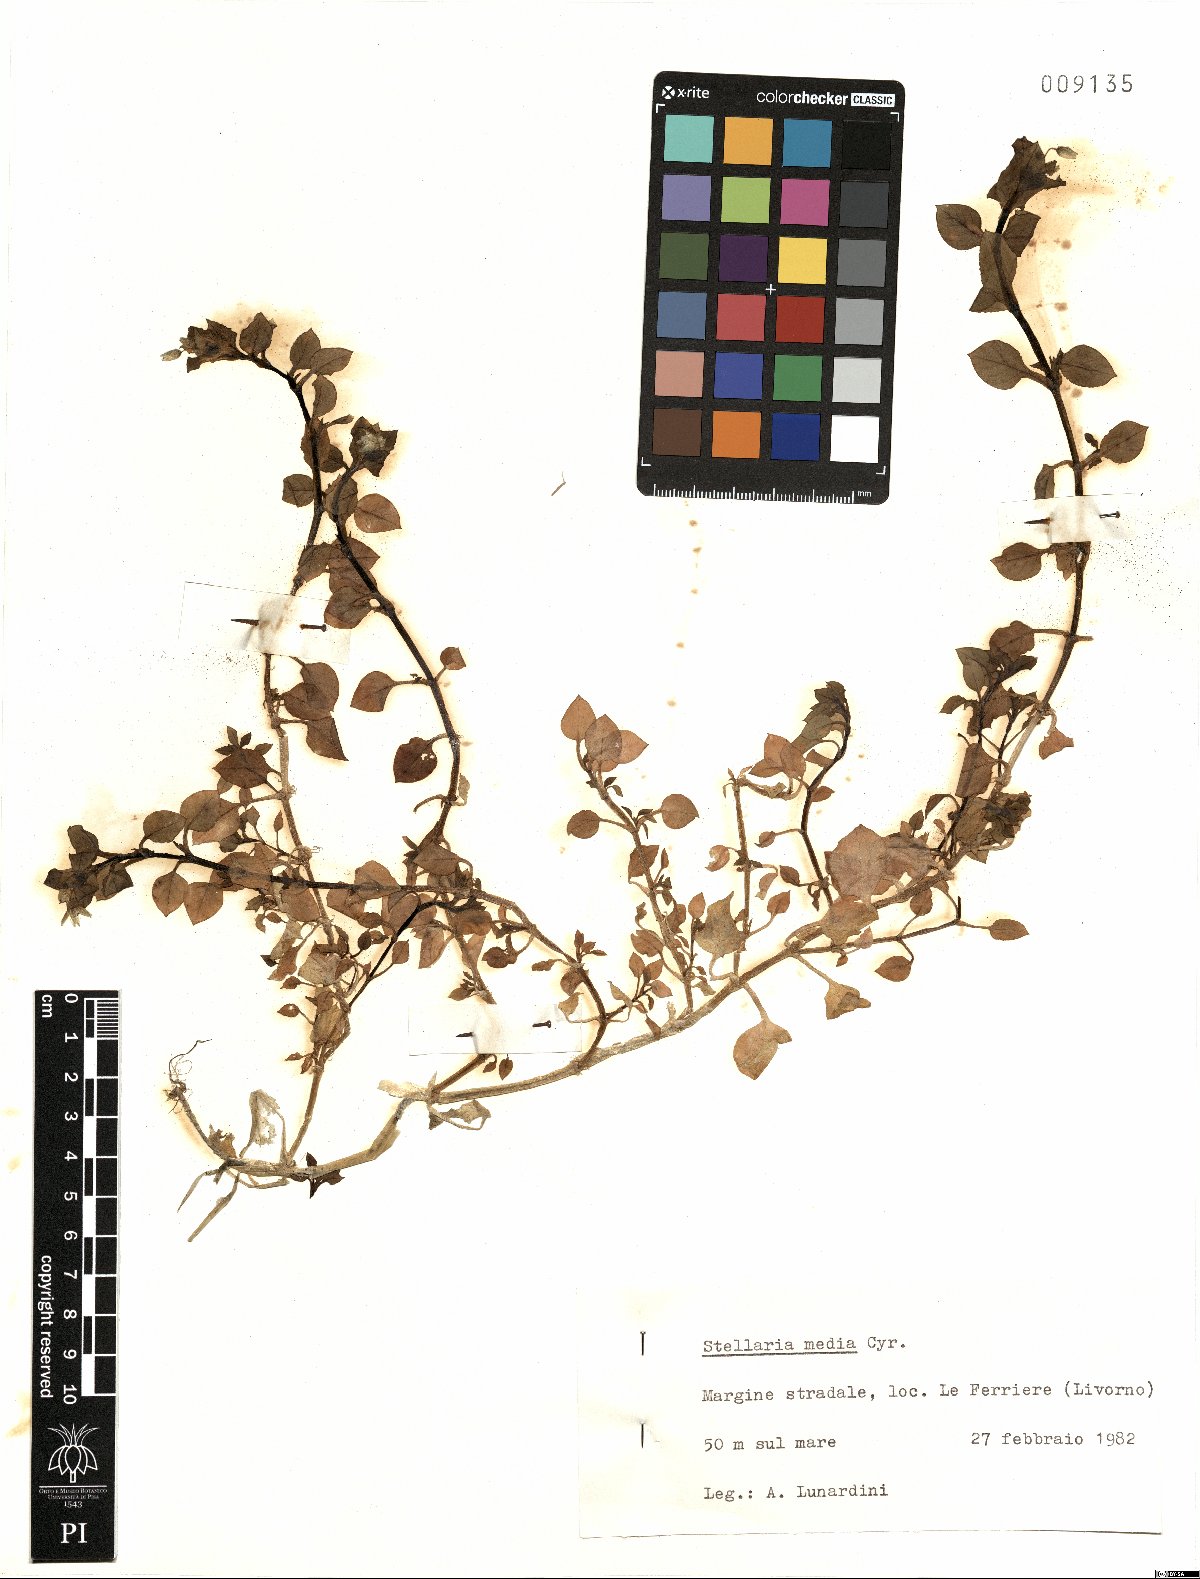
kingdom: Plantae
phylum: Tracheophyta
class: Magnoliopsida
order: Caryophyllales
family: Caryophyllaceae
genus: Stellaria
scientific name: Stellaria media
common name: Common chickweed
